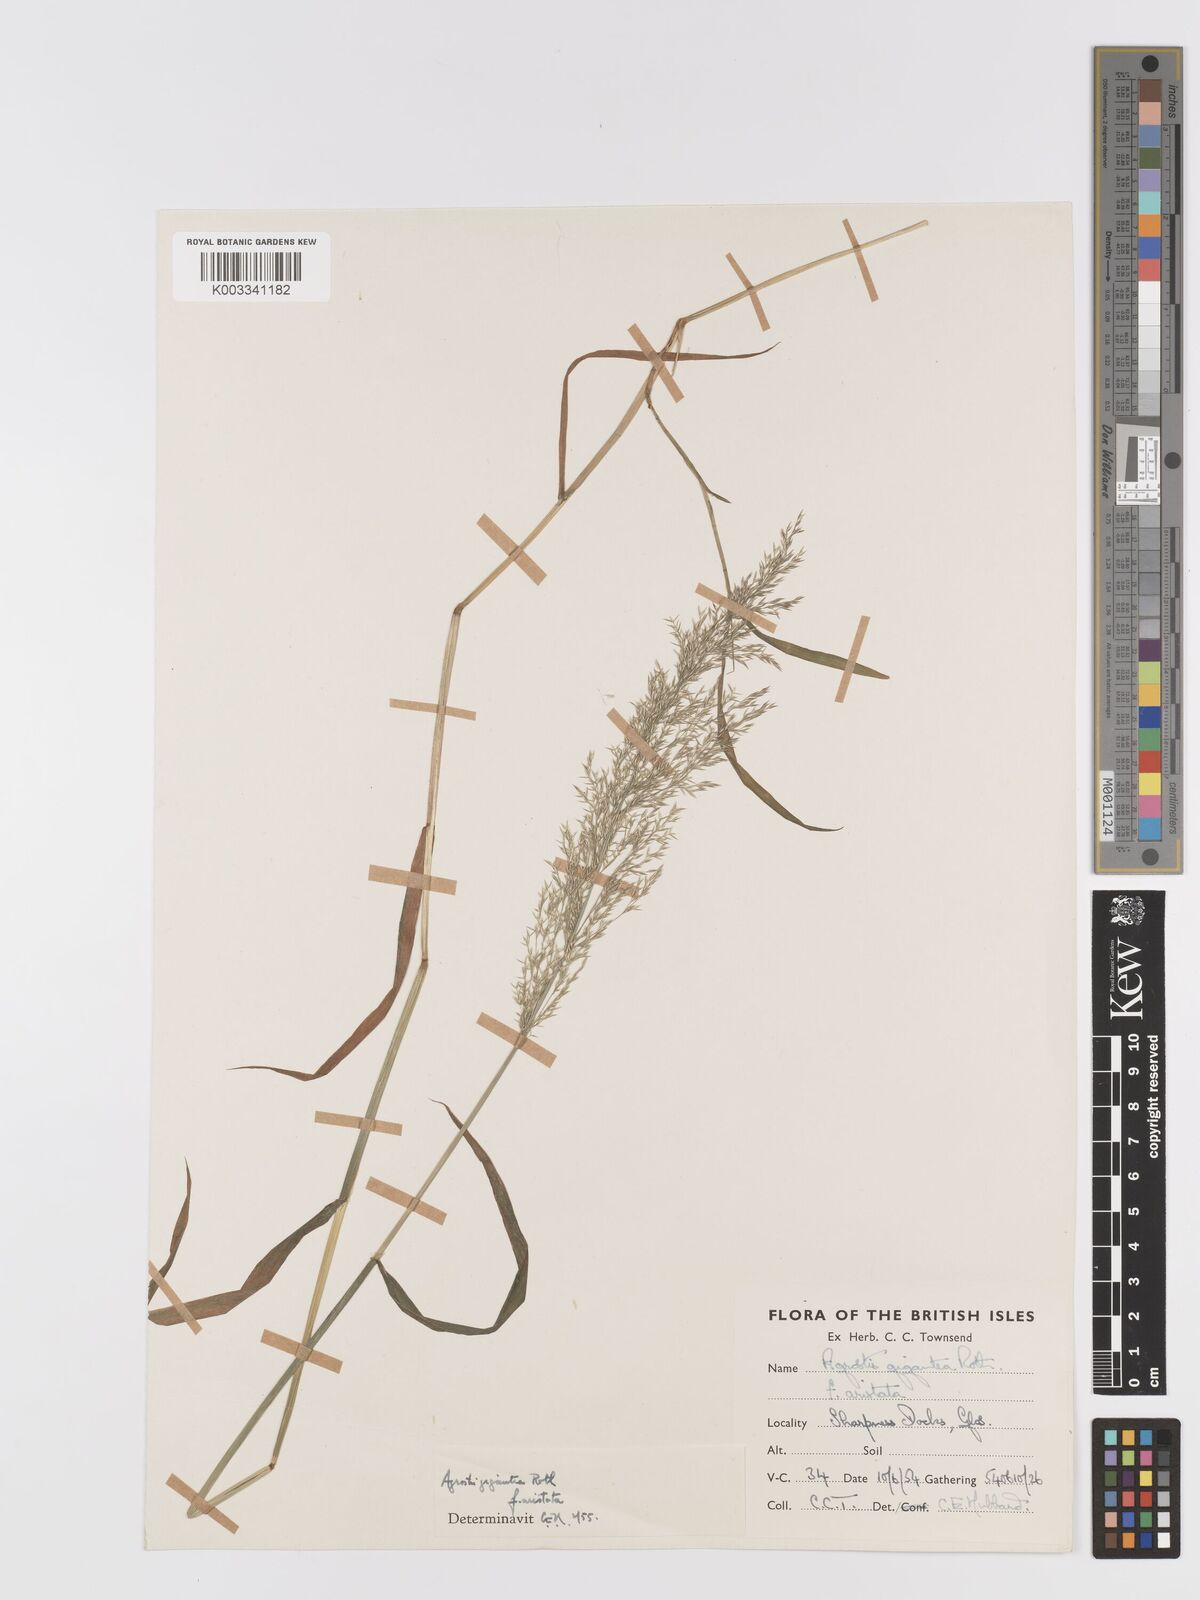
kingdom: Plantae
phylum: Tracheophyta
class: Liliopsida
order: Poales
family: Poaceae
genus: Agrostis
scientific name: Agrostis gigantea
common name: Black bent
